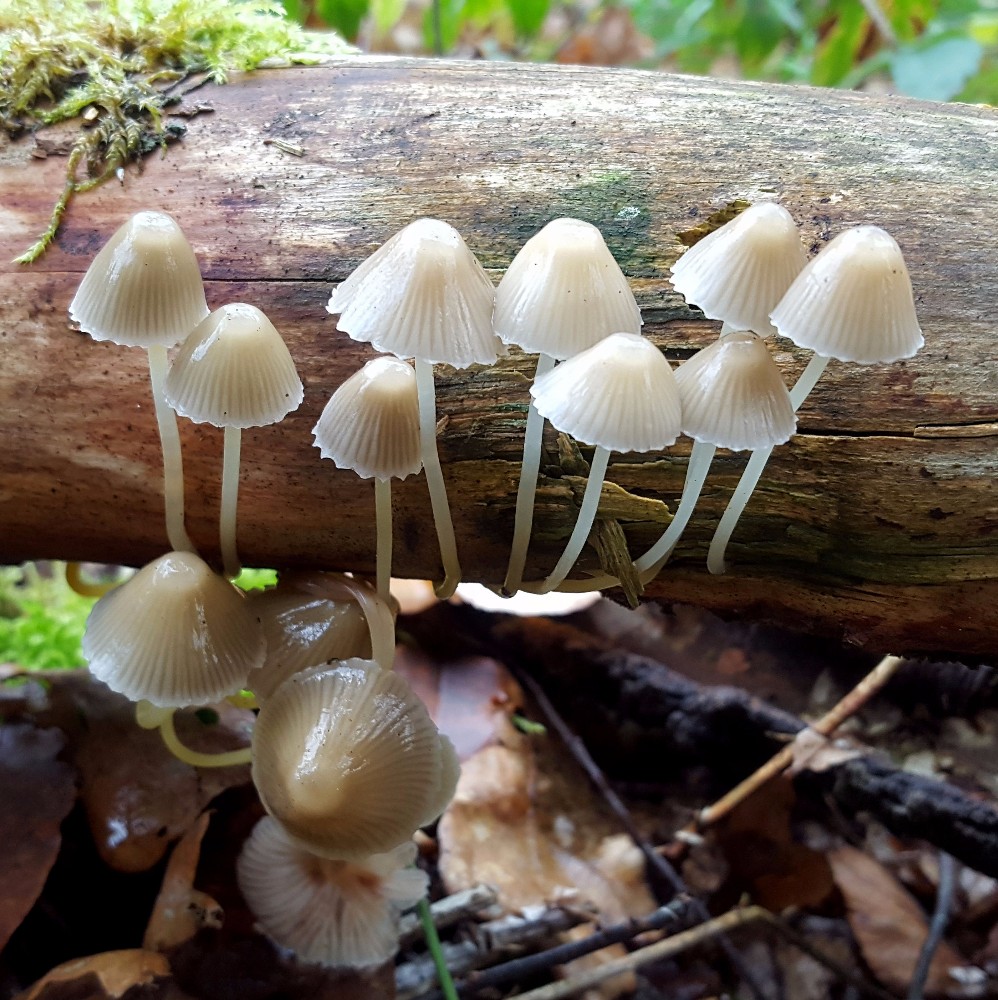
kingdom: Fungi
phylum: Basidiomycota
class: Agaricomycetes
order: Agaricales
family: Mycenaceae
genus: Mycena
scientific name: Mycena epipterygia
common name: gulstokket huesvamp
